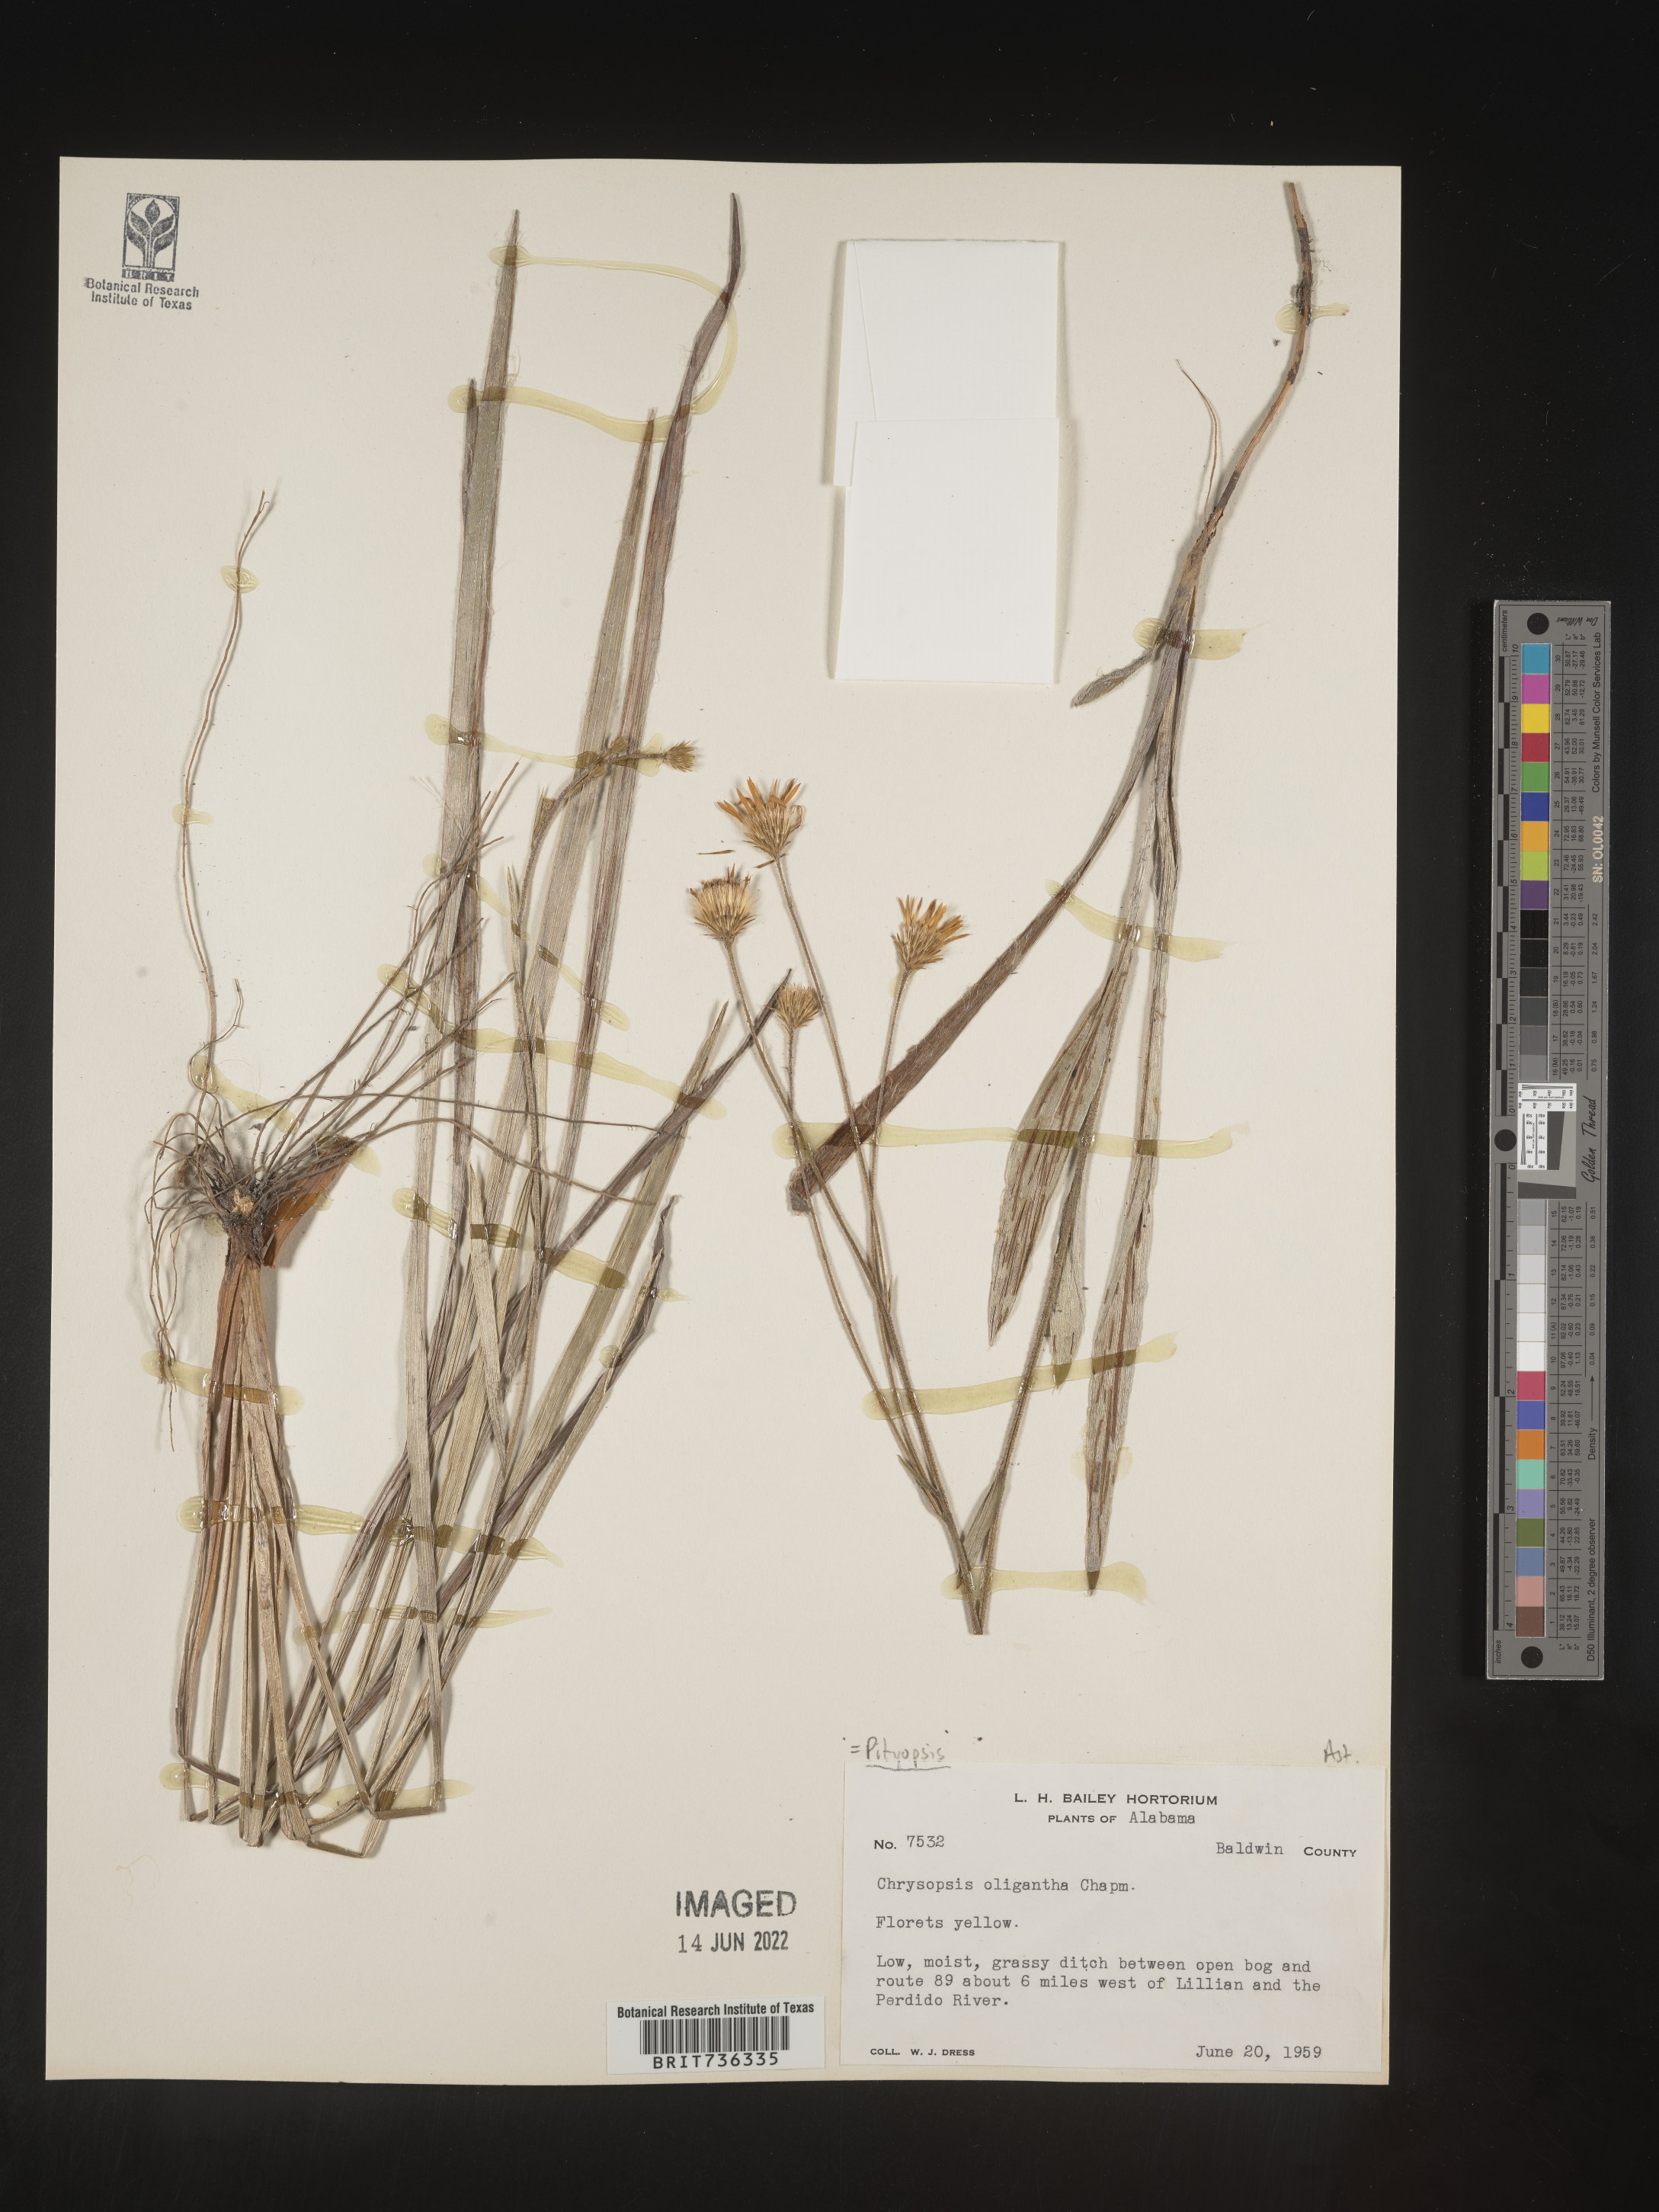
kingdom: Plantae
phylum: Tracheophyta
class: Magnoliopsida
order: Asterales
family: Asteraceae
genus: Pityopsis
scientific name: Pityopsis oligantha
